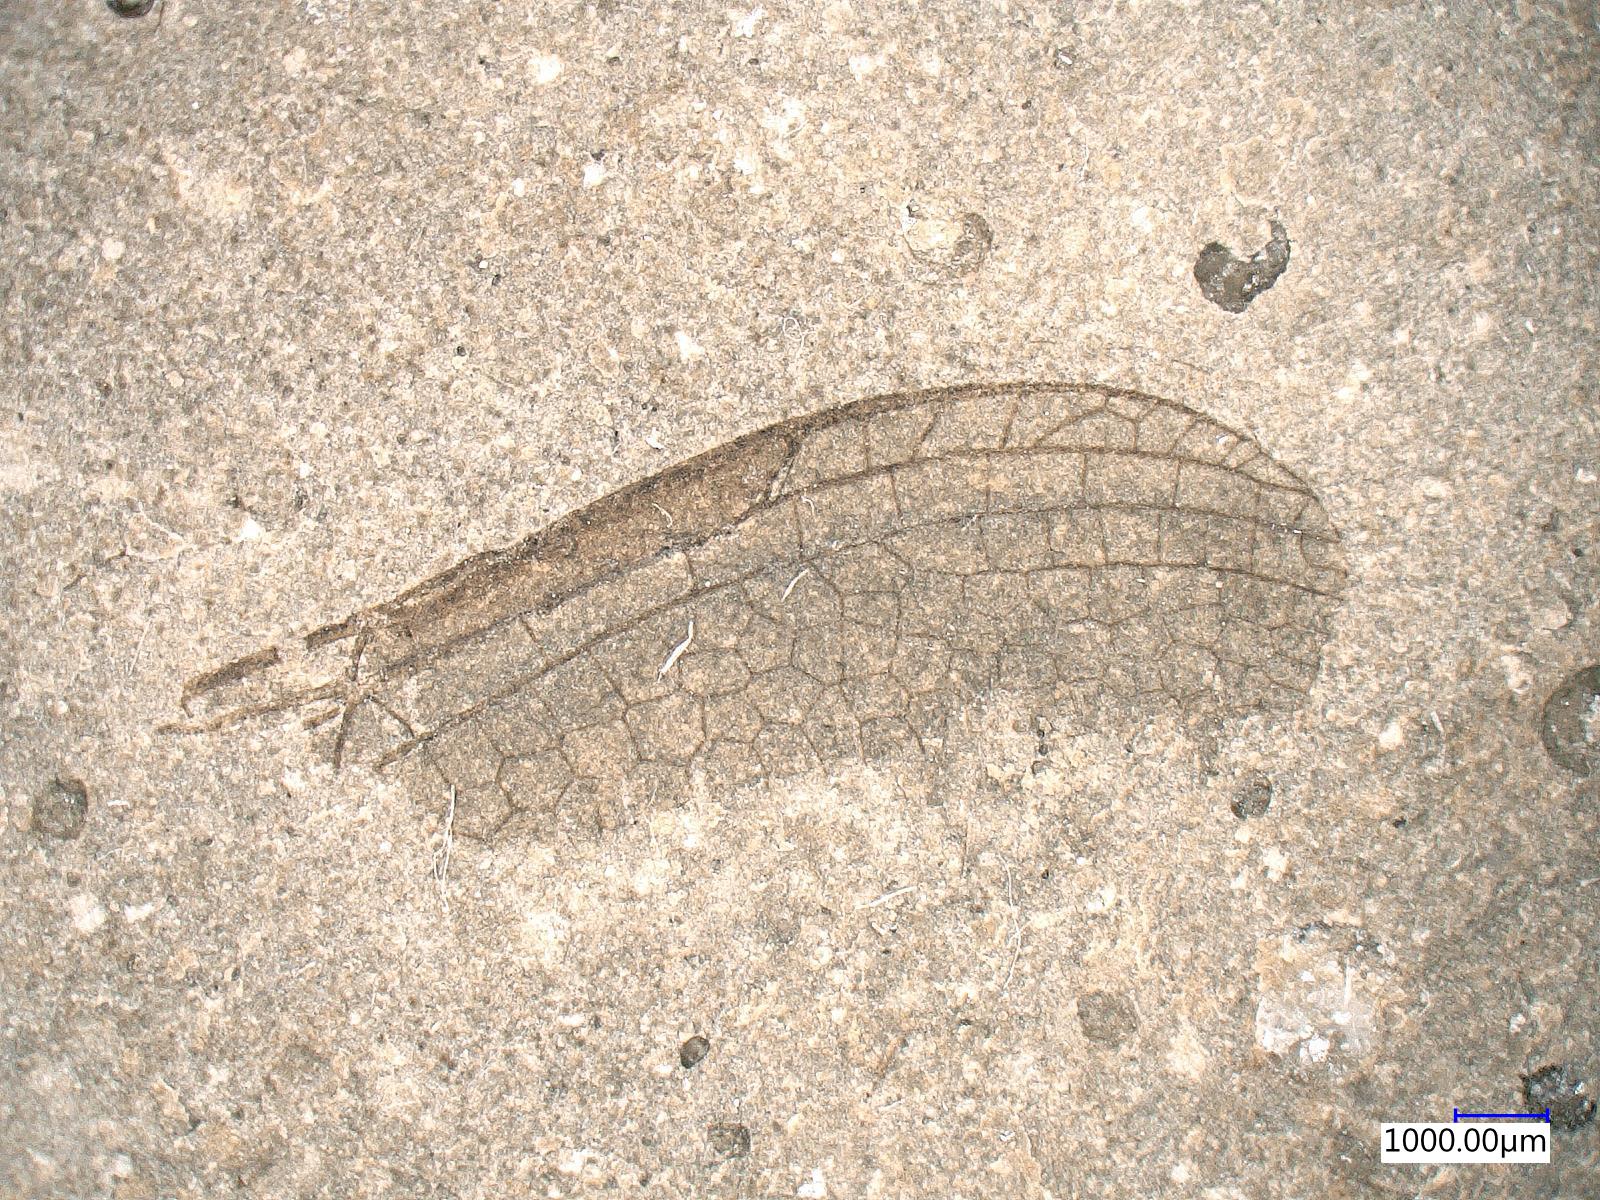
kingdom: Animalia
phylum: Arthropoda
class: Insecta
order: Odonata
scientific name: Odonata
